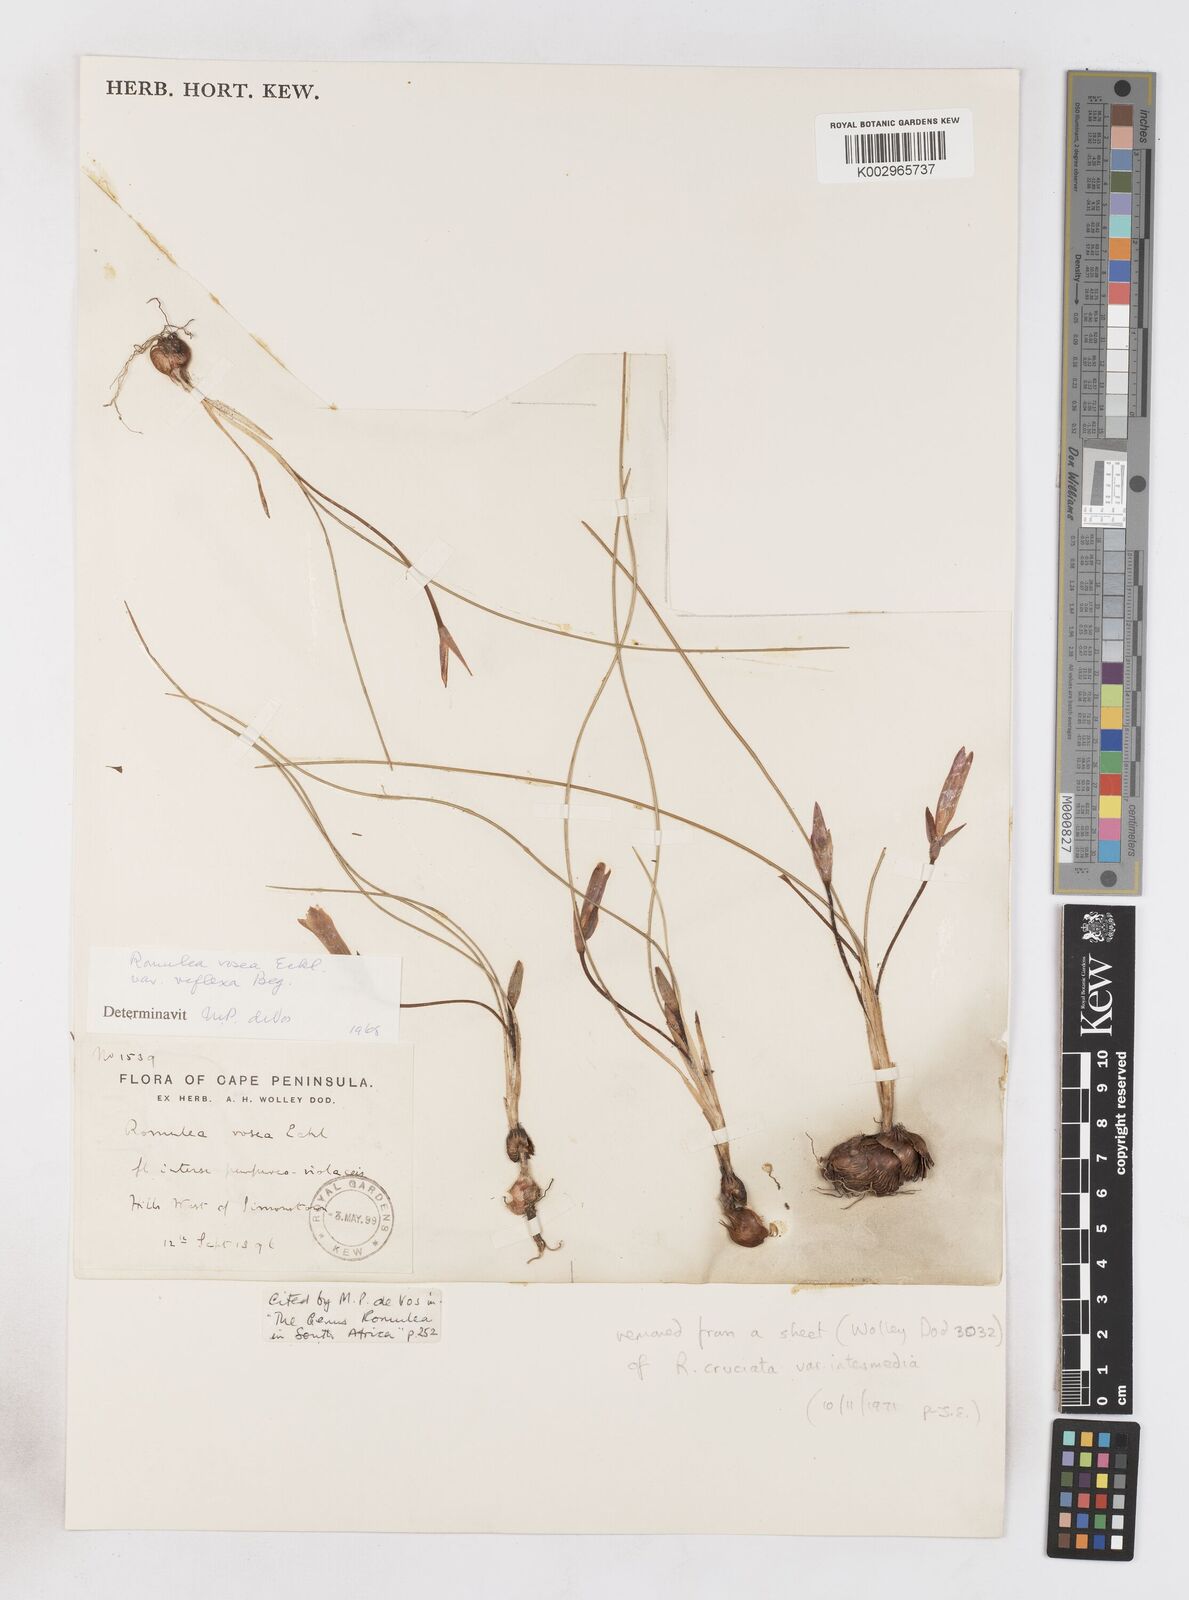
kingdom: Plantae
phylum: Tracheophyta
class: Liliopsida
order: Asparagales
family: Iridaceae
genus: Romulea
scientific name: Romulea rosea
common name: Oniongrass
